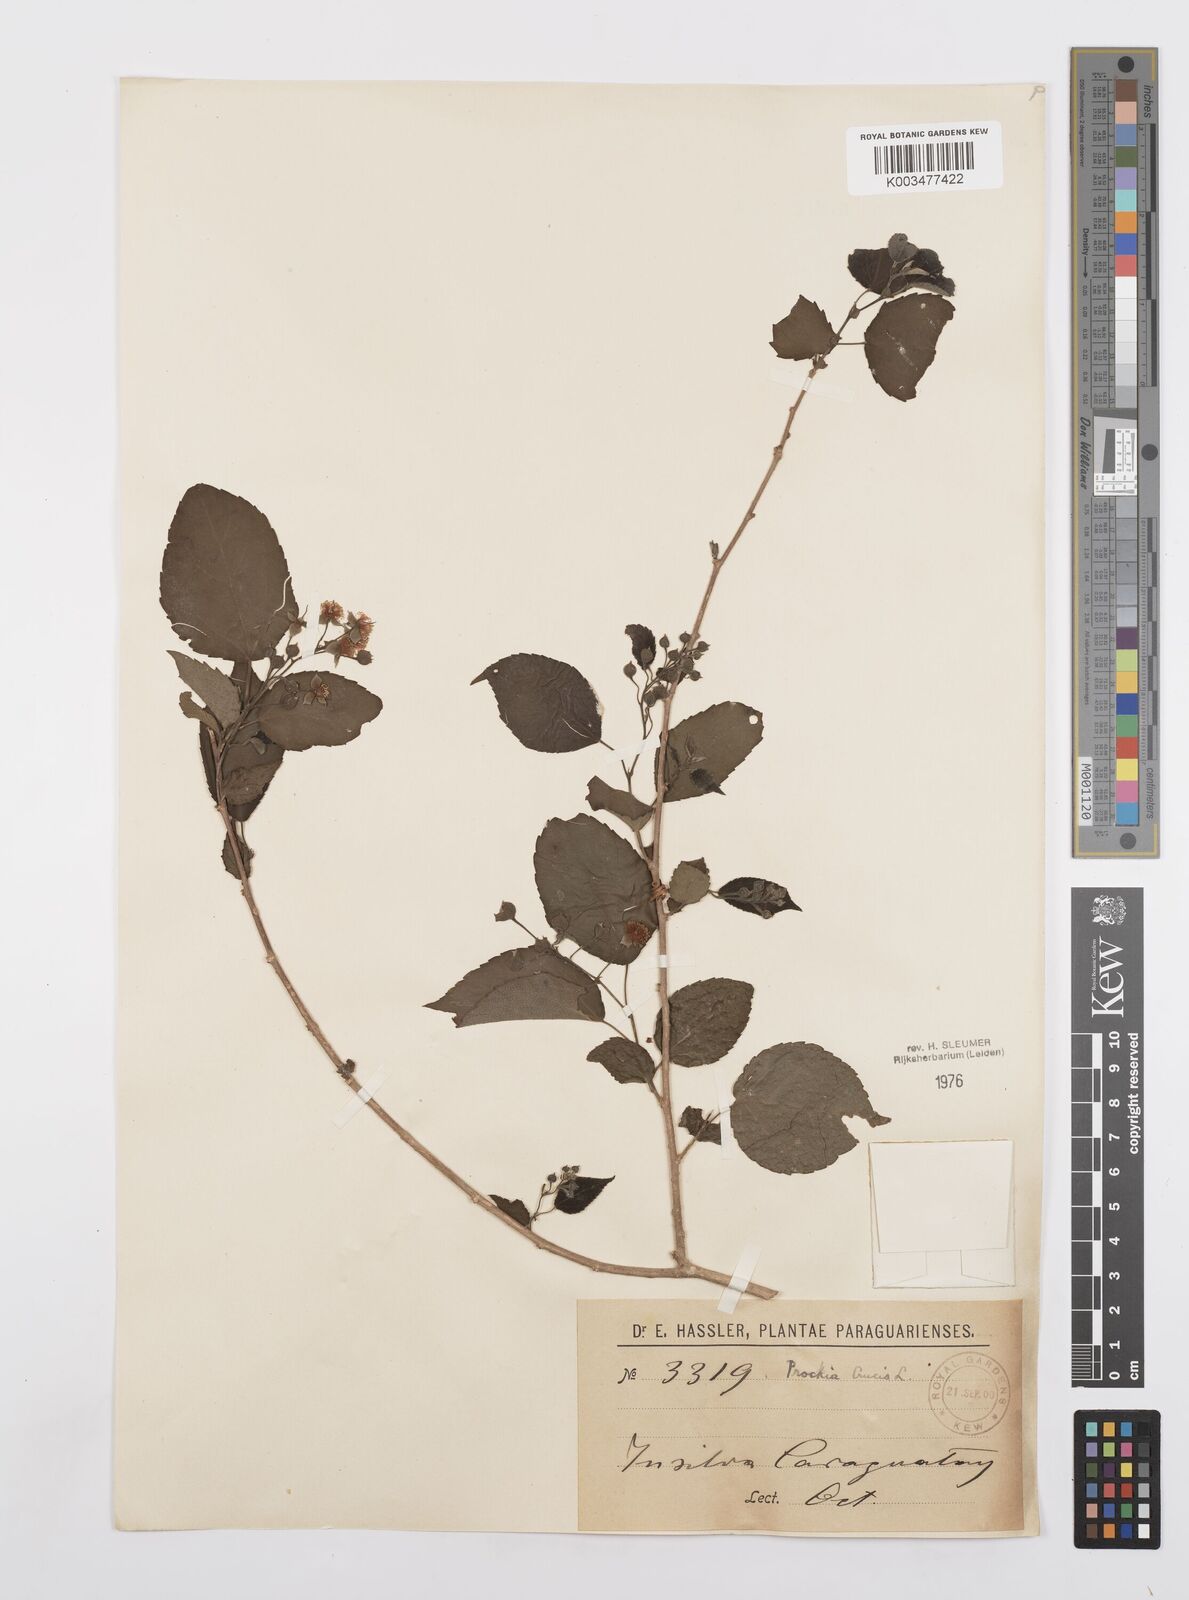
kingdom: Plantae
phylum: Tracheophyta
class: Magnoliopsida
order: Malpighiales
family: Salicaceae
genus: Prockia
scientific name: Prockia crucis
